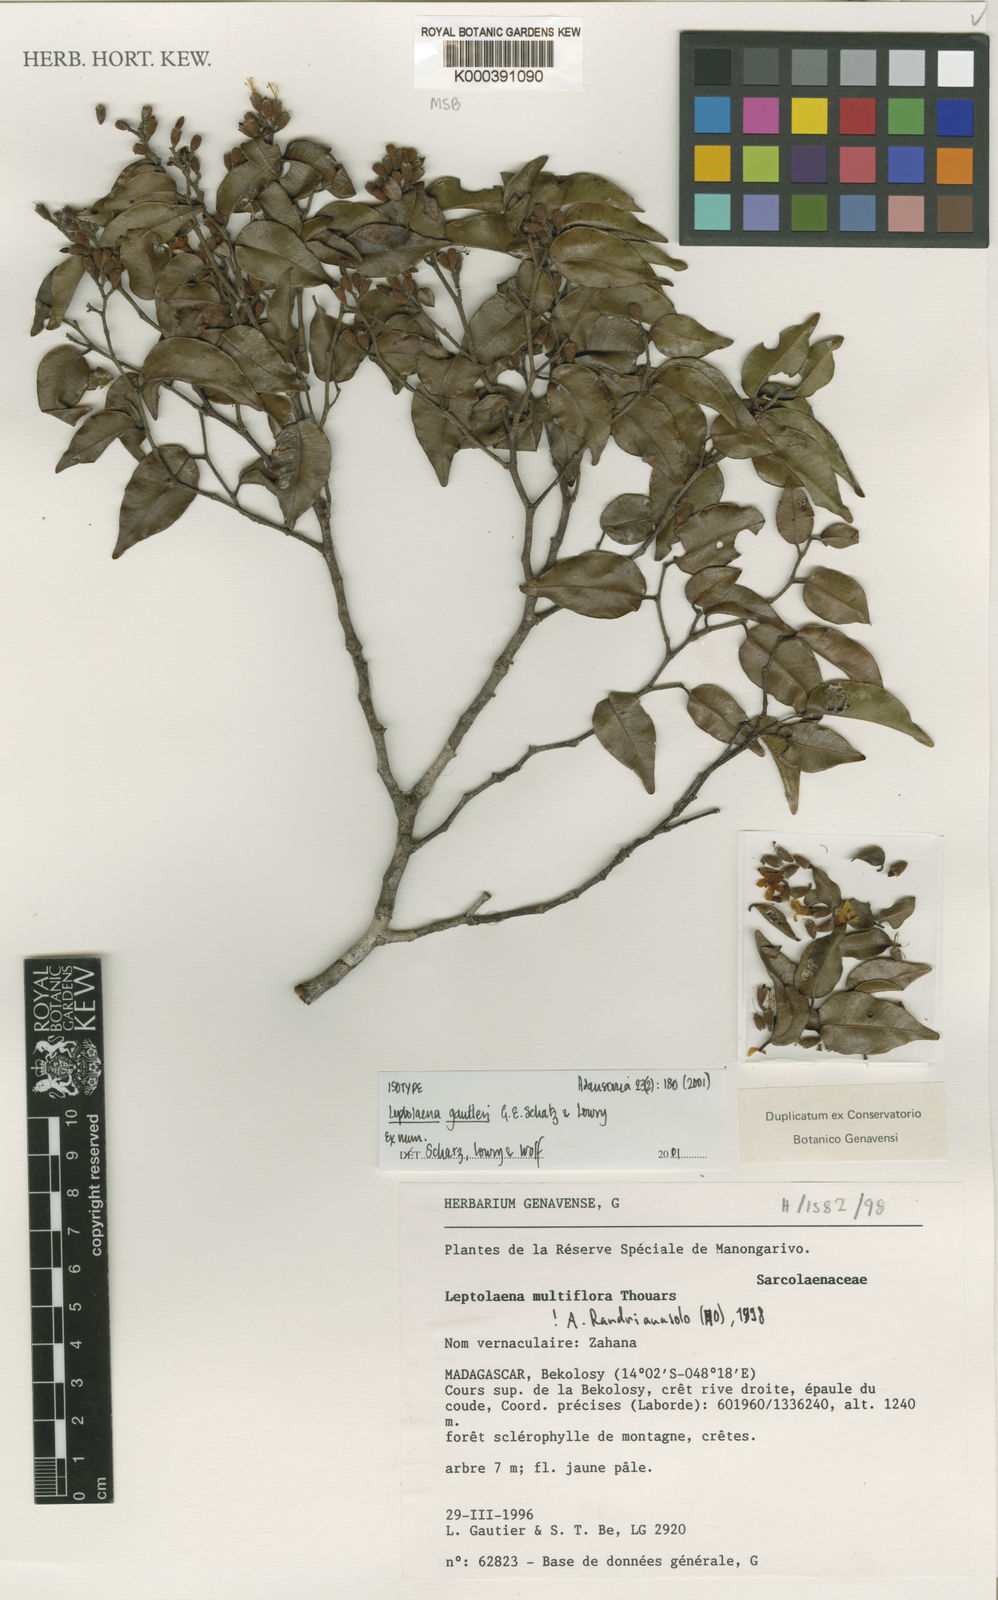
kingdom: Plantae
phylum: Tracheophyta
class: Magnoliopsida
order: Malvales
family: Sarcolaenaceae
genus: Leptolaena
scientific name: Leptolaena gautieri
